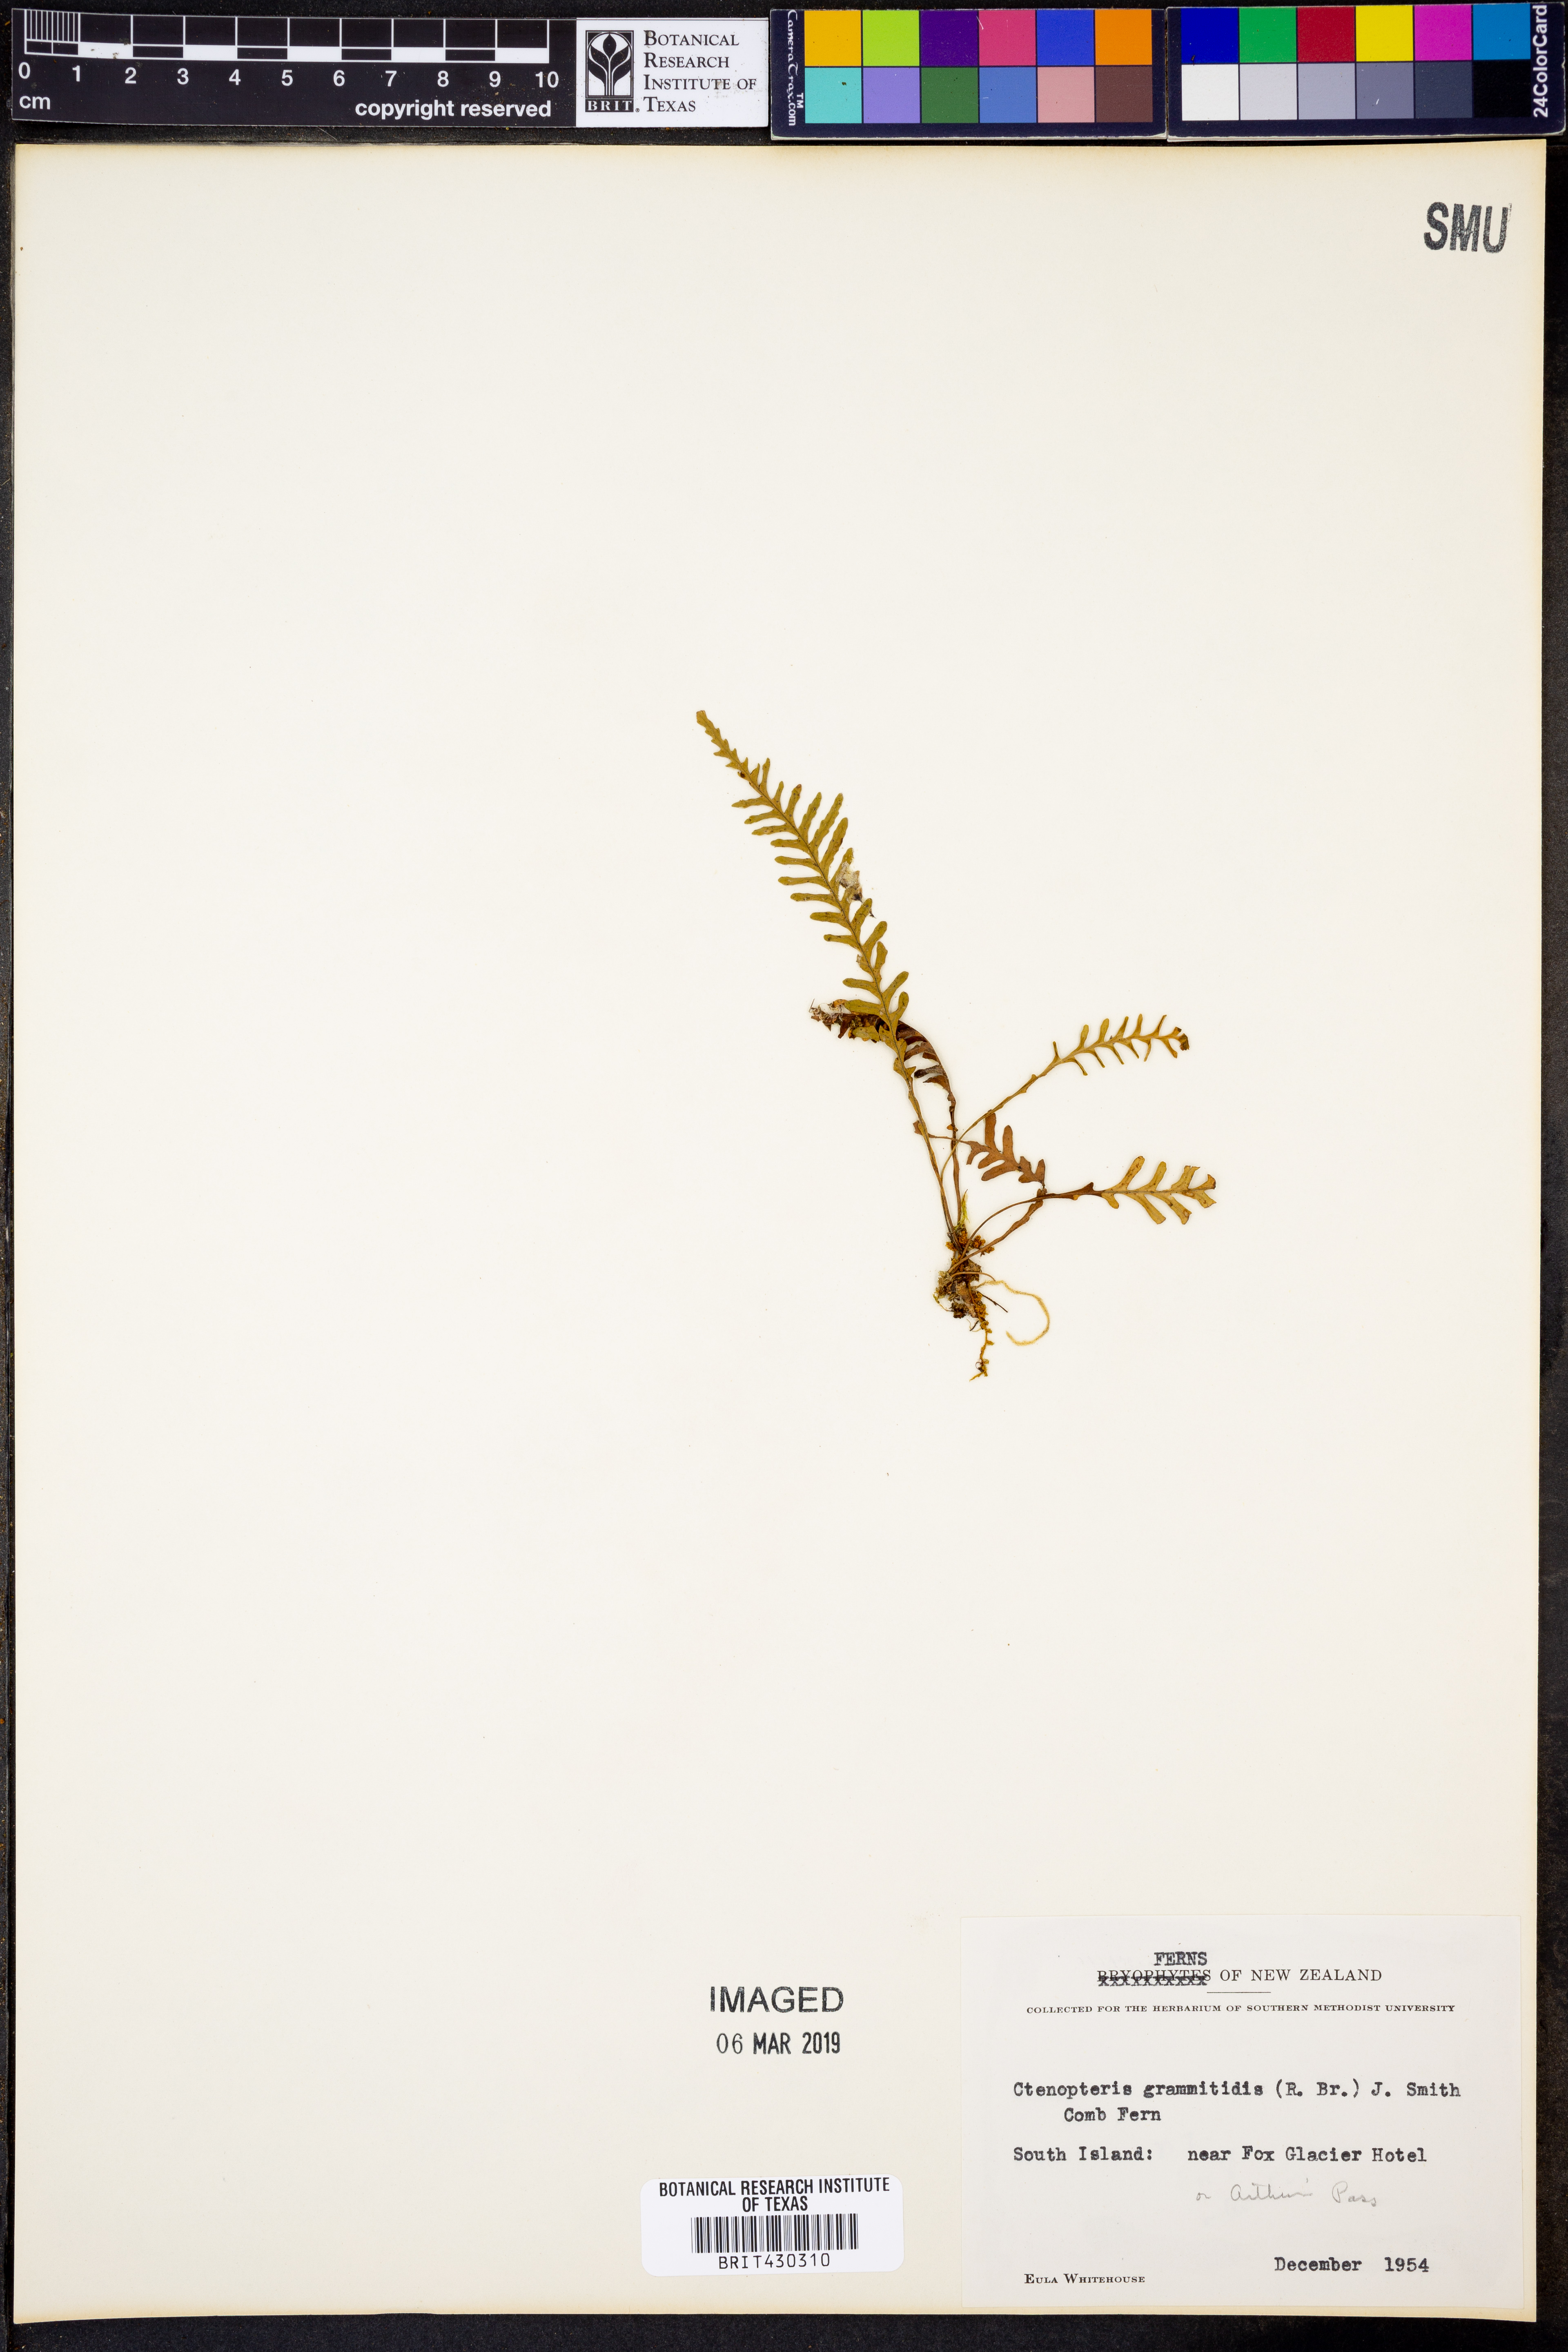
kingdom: Plantae
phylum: Tracheophyta
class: Polypodiopsida
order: Polypodiales
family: Polypodiaceae
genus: Notogrammitis
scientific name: Notogrammitis heterophylla
